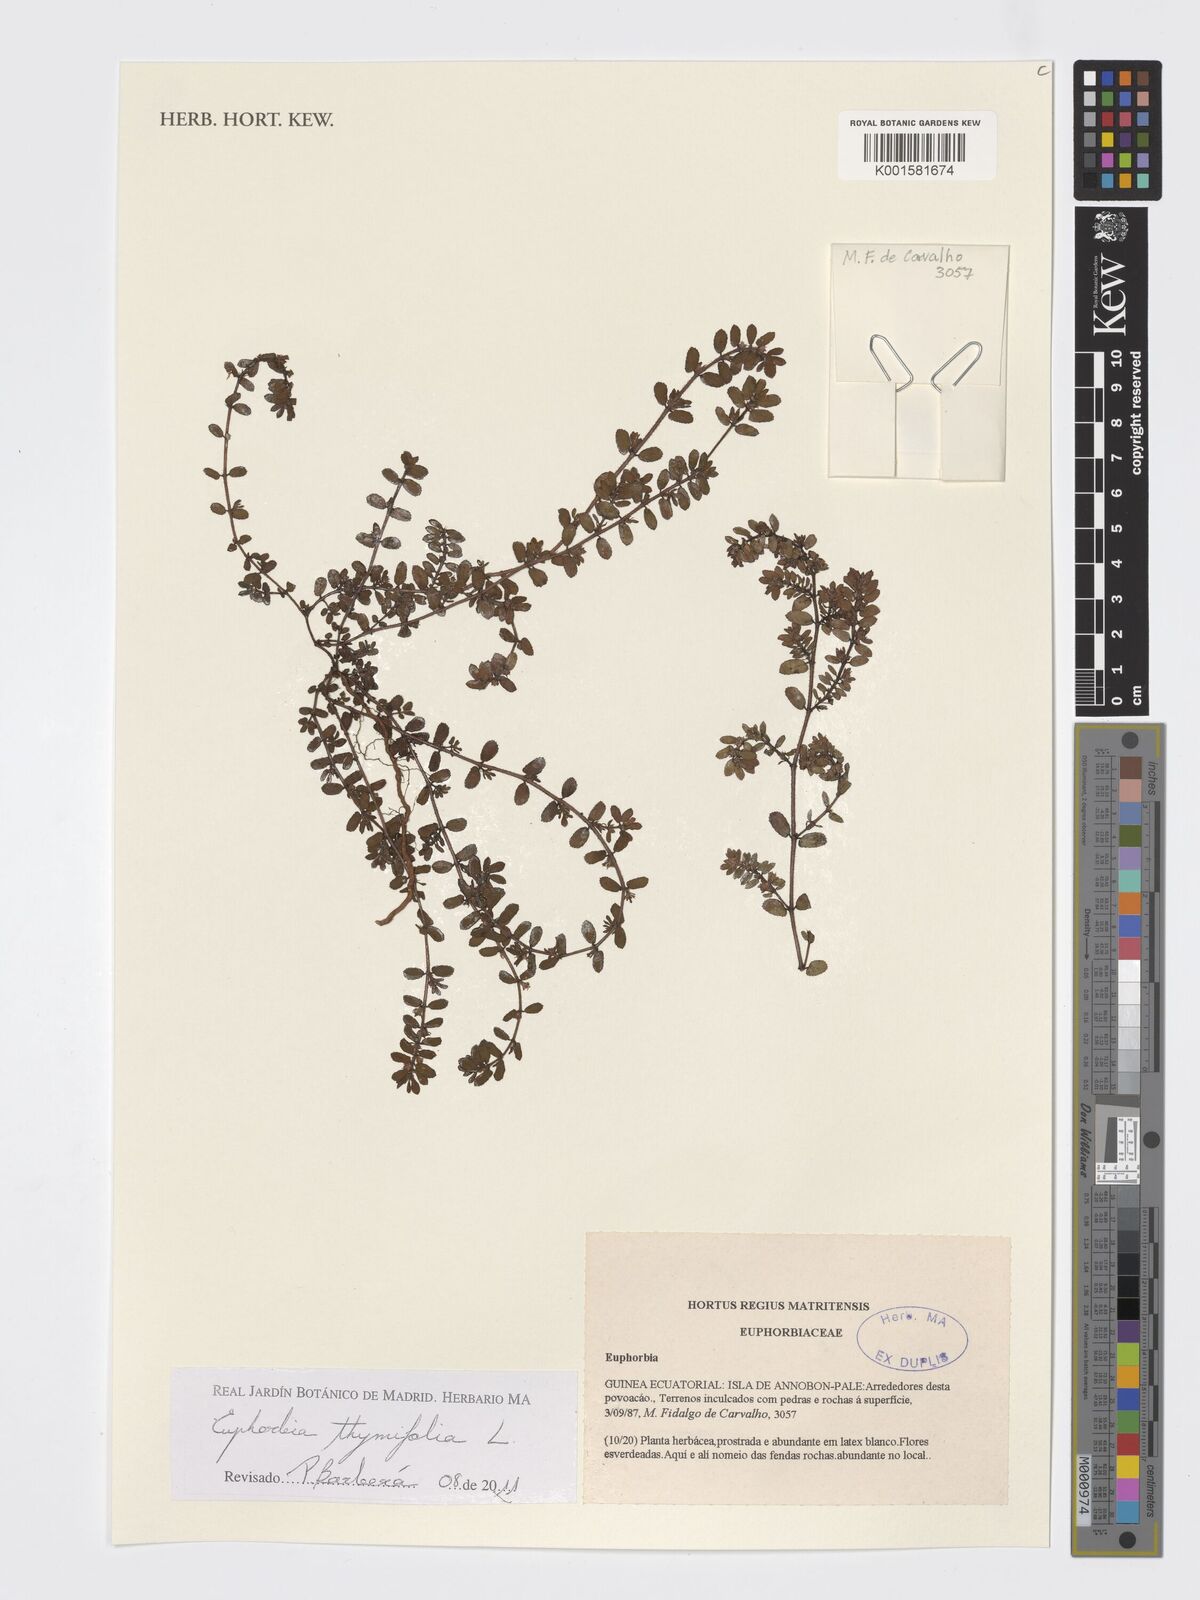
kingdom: Plantae
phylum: Tracheophyta
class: Magnoliopsida
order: Malpighiales
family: Euphorbiaceae
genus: Euphorbia
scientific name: Euphorbia thymifolia
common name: Gulf sandmat
